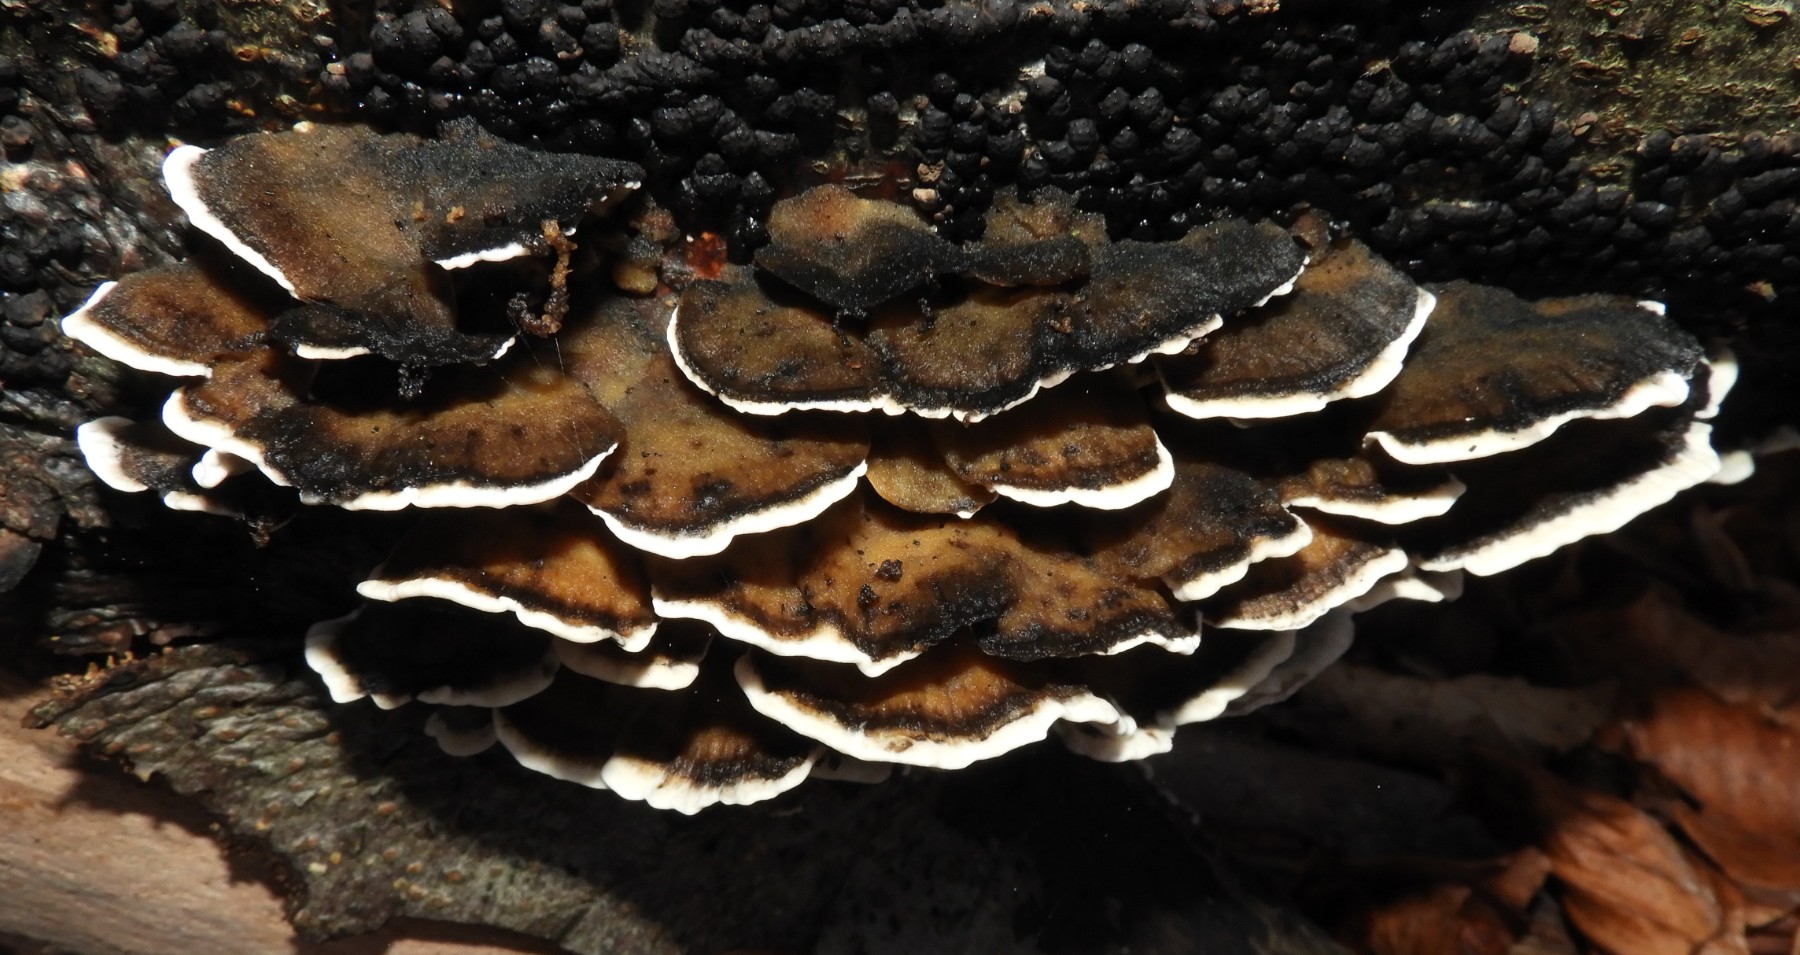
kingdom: Fungi
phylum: Basidiomycota
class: Agaricomycetes
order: Polyporales
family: Phanerochaetaceae
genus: Bjerkandera
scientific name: Bjerkandera adusta
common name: sveden sodporesvamp
